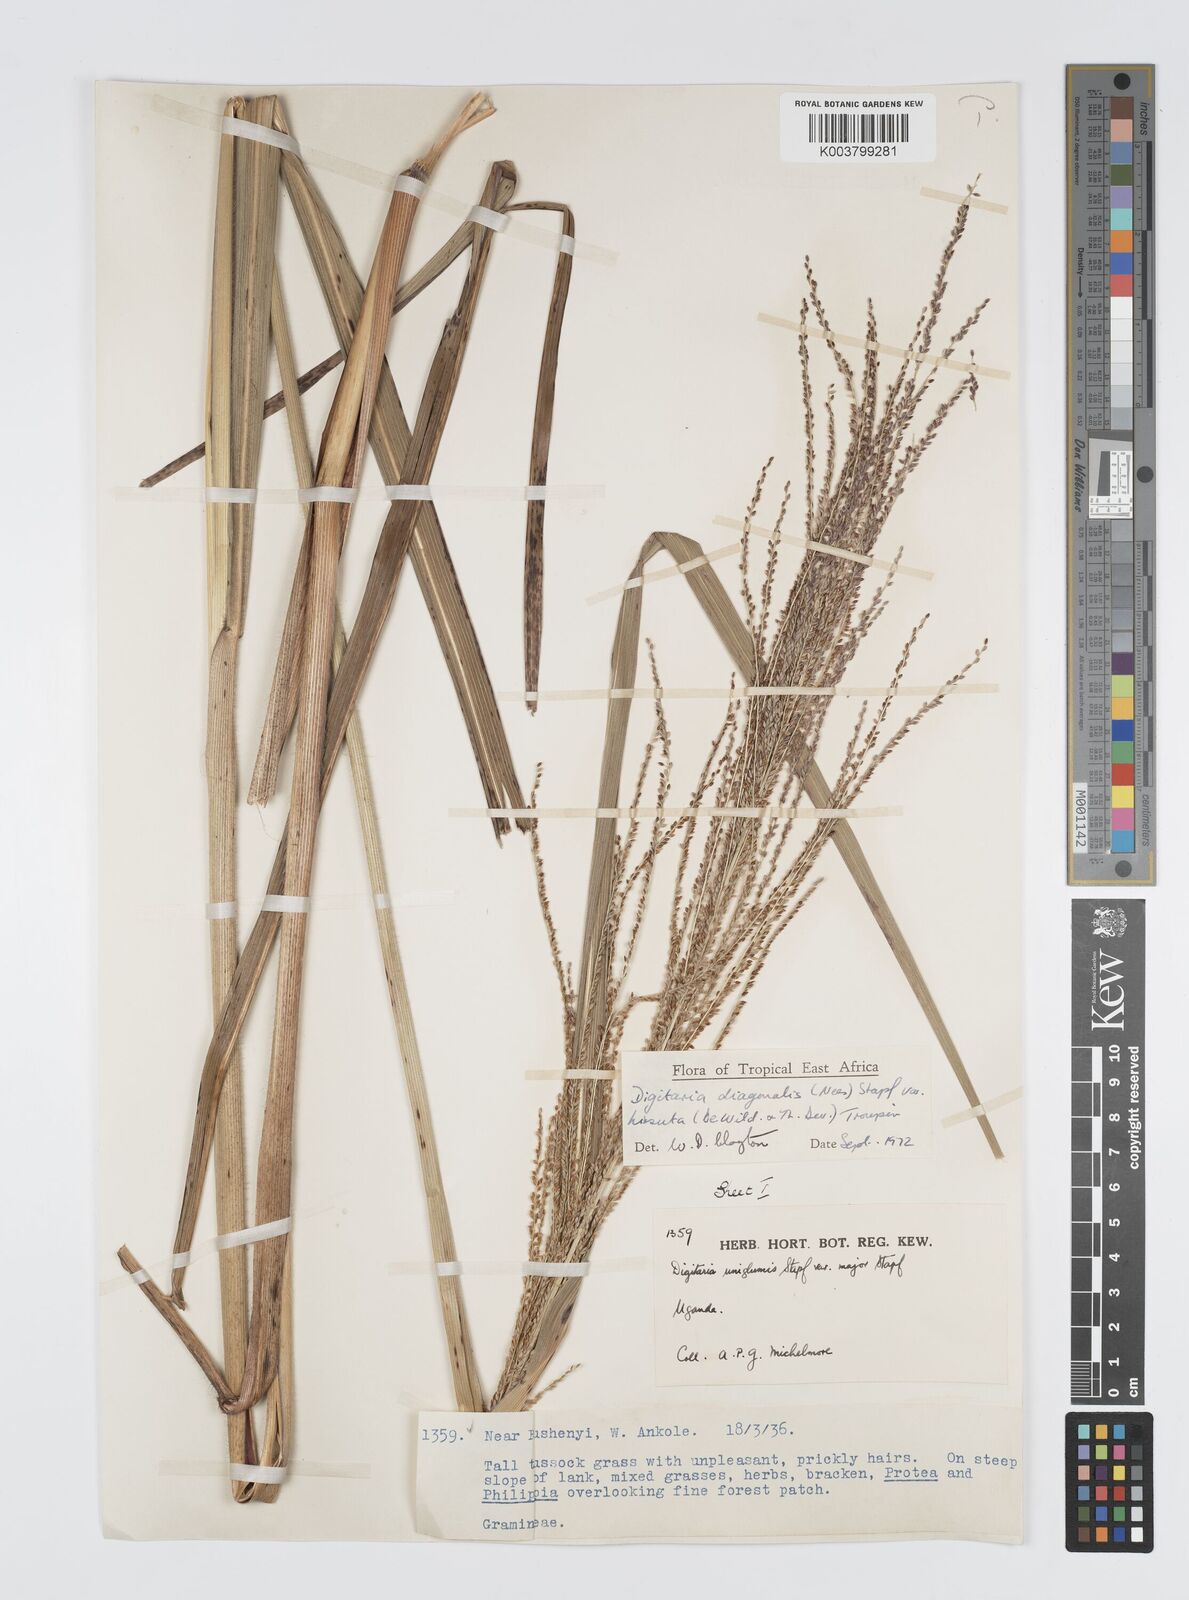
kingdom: Plantae
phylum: Tracheophyta
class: Liliopsida
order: Poales
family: Poaceae
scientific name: Poaceae
